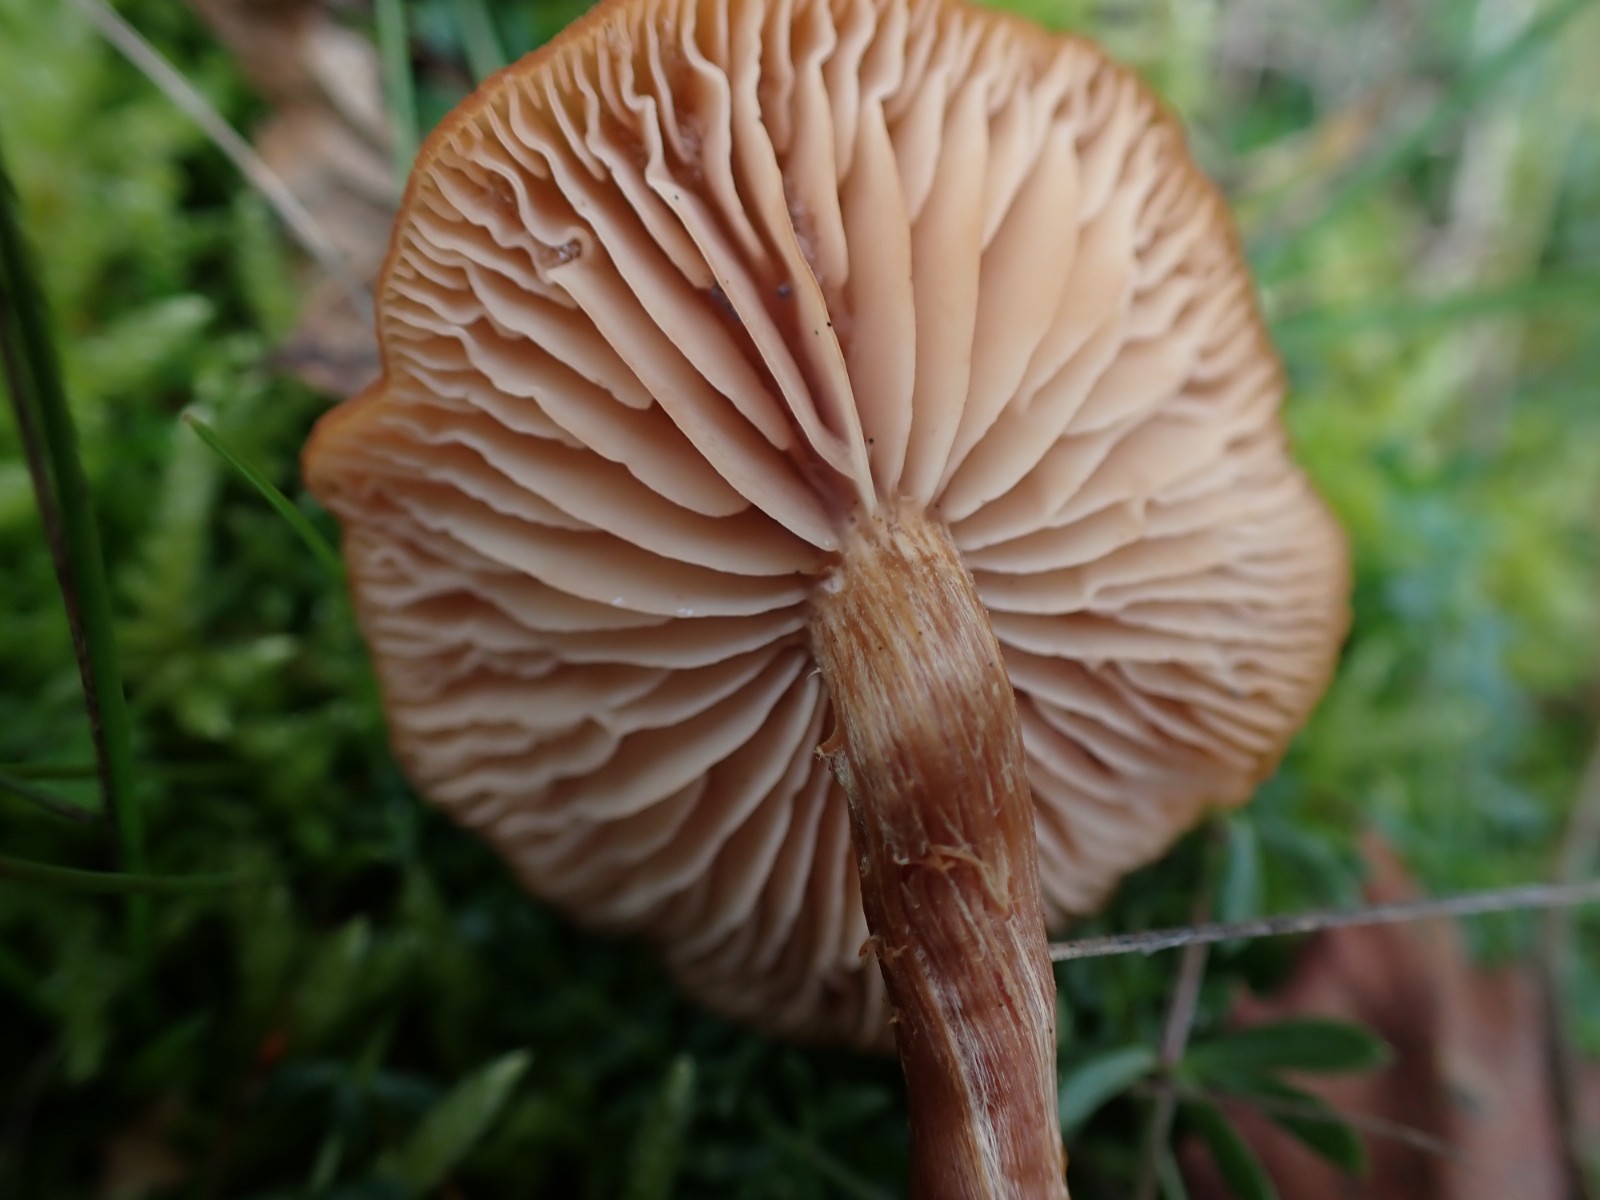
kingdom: Fungi
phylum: Basidiomycota
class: Agaricomycetes
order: Agaricales
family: Hydnangiaceae
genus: Laccaria
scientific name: Laccaria proxima
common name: stor ametysthat
